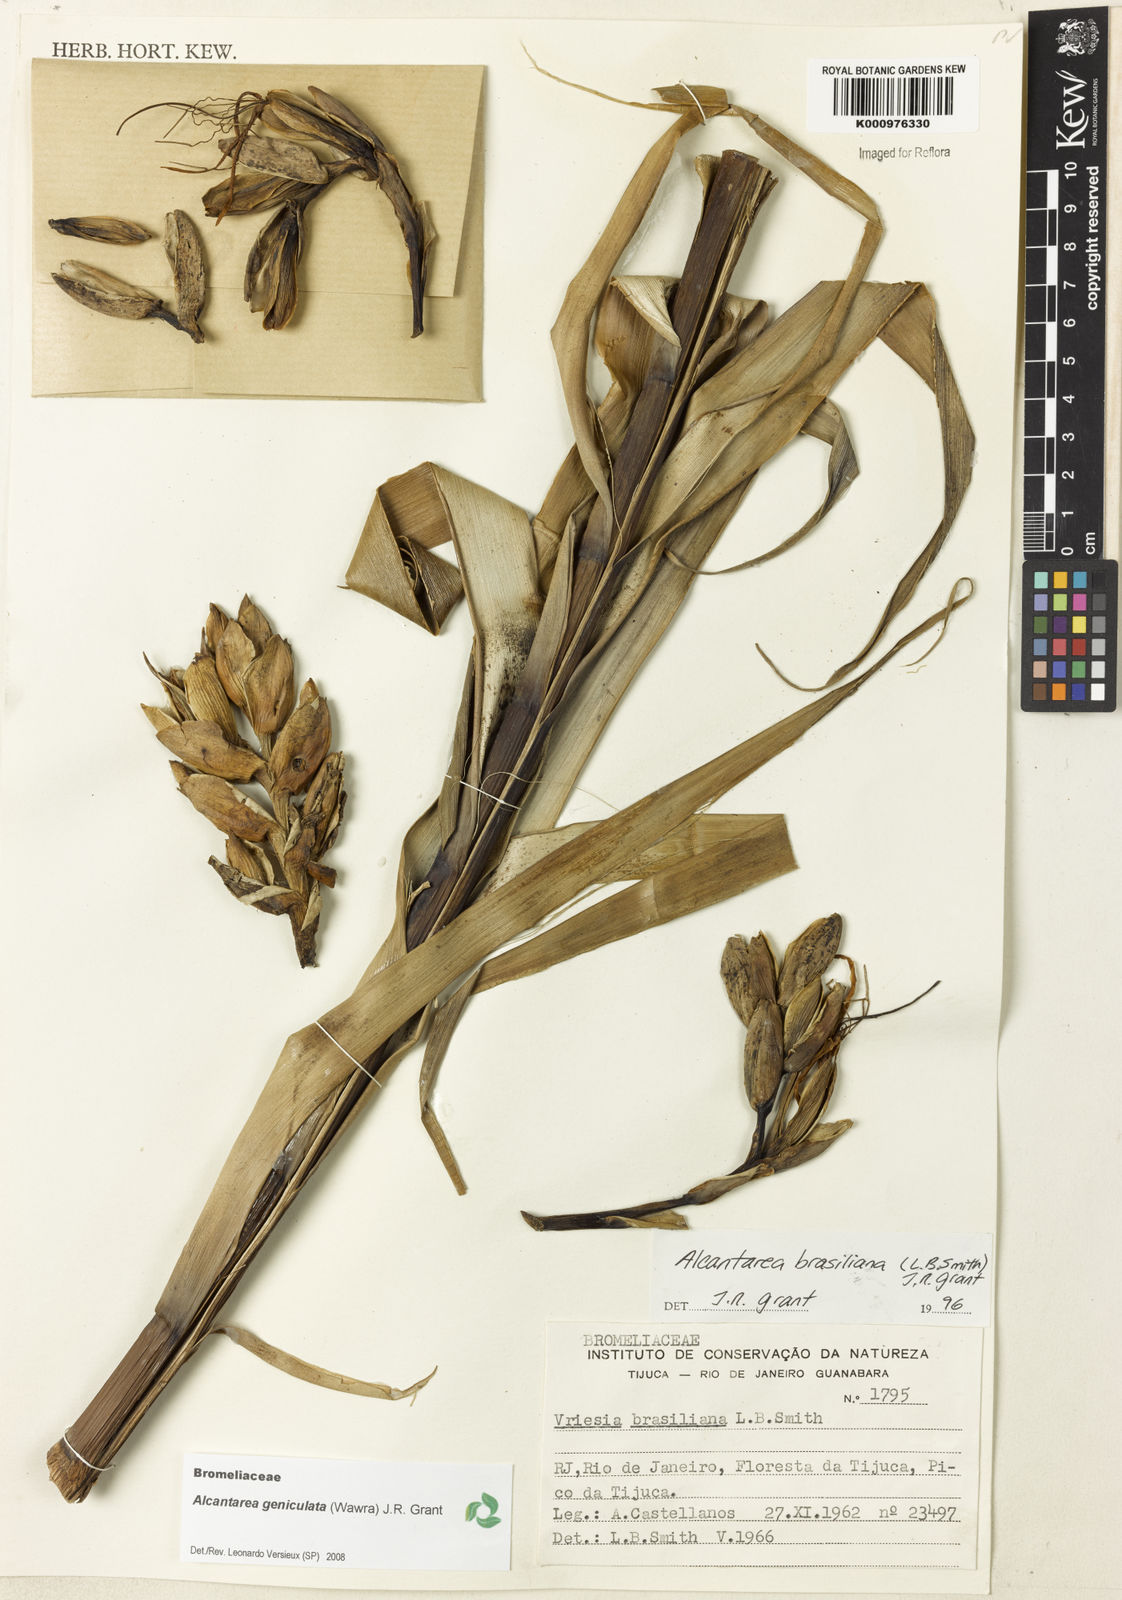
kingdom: Plantae
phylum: Tracheophyta
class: Liliopsida
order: Poales
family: Bromeliaceae
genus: Alcantarea
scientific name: Alcantarea geniculata
